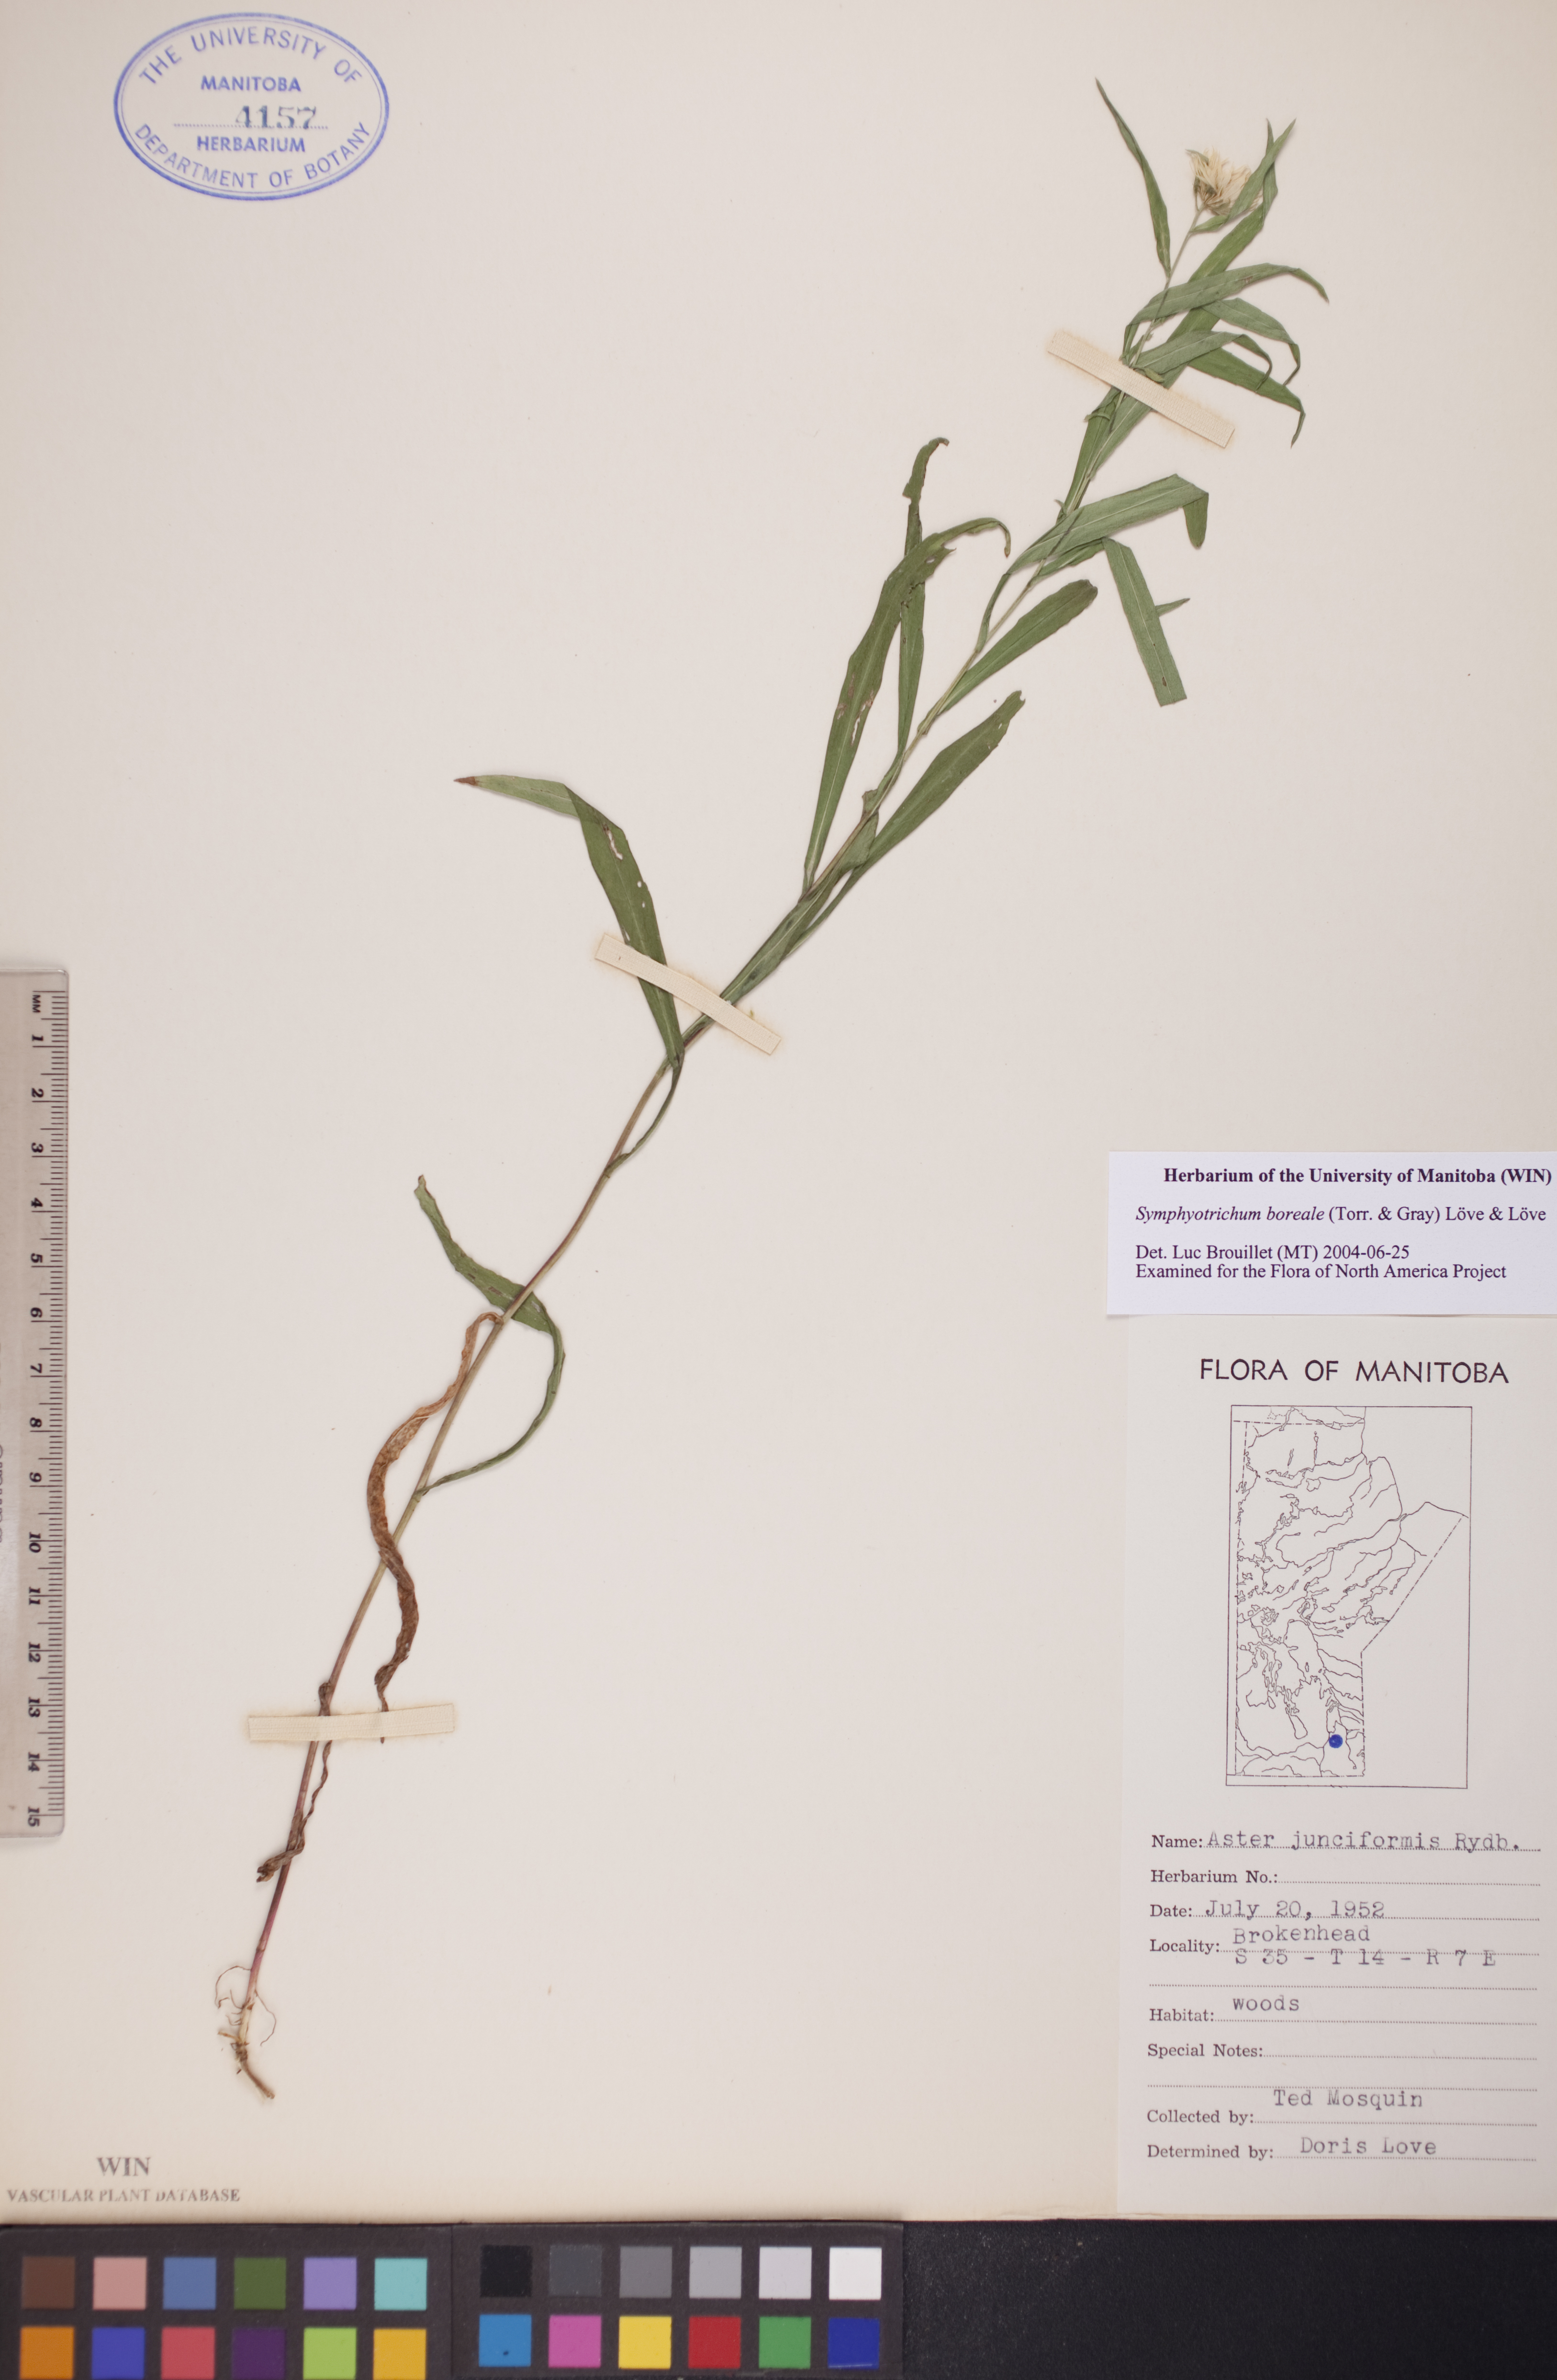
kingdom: Plantae
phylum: Tracheophyta
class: Magnoliopsida
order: Asterales
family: Asteraceae
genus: Symphyotrichum
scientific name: Symphyotrichum boreale
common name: Northern bog aster
